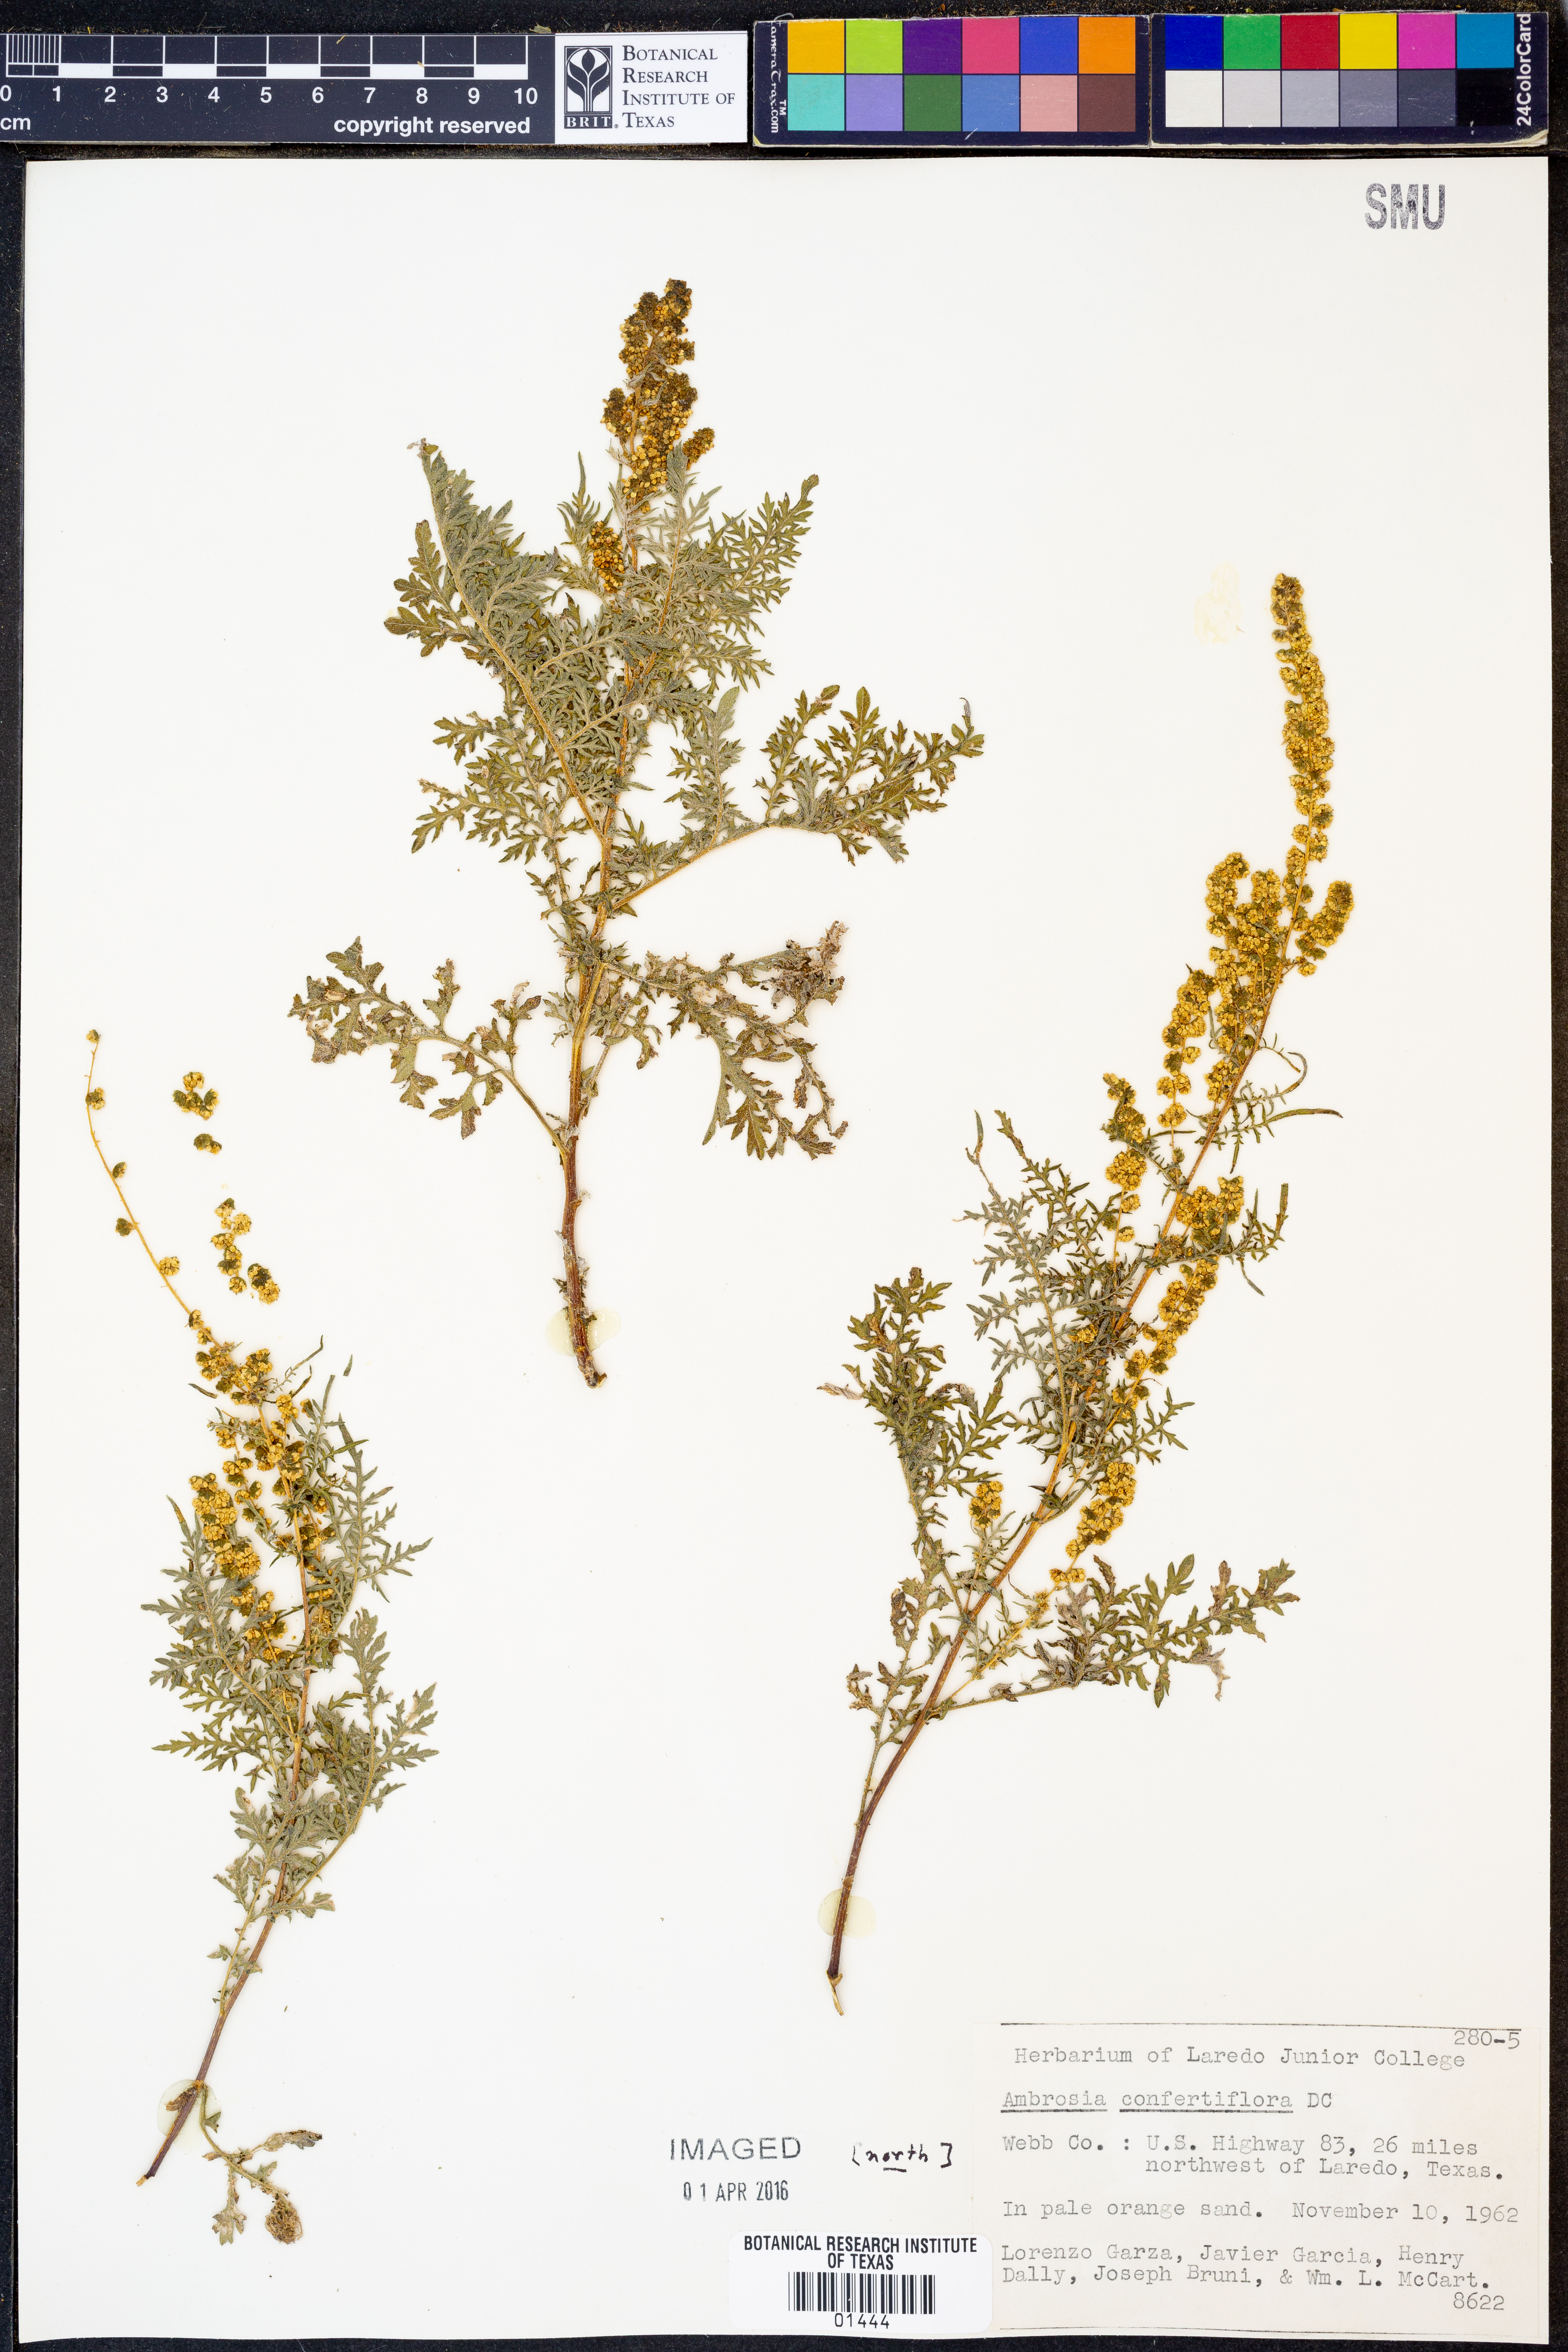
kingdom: Plantae
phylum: Tracheophyta
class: Magnoliopsida
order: Asterales
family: Asteraceae
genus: Ambrosia
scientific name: Ambrosia confertiflora
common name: Bur ragweed
